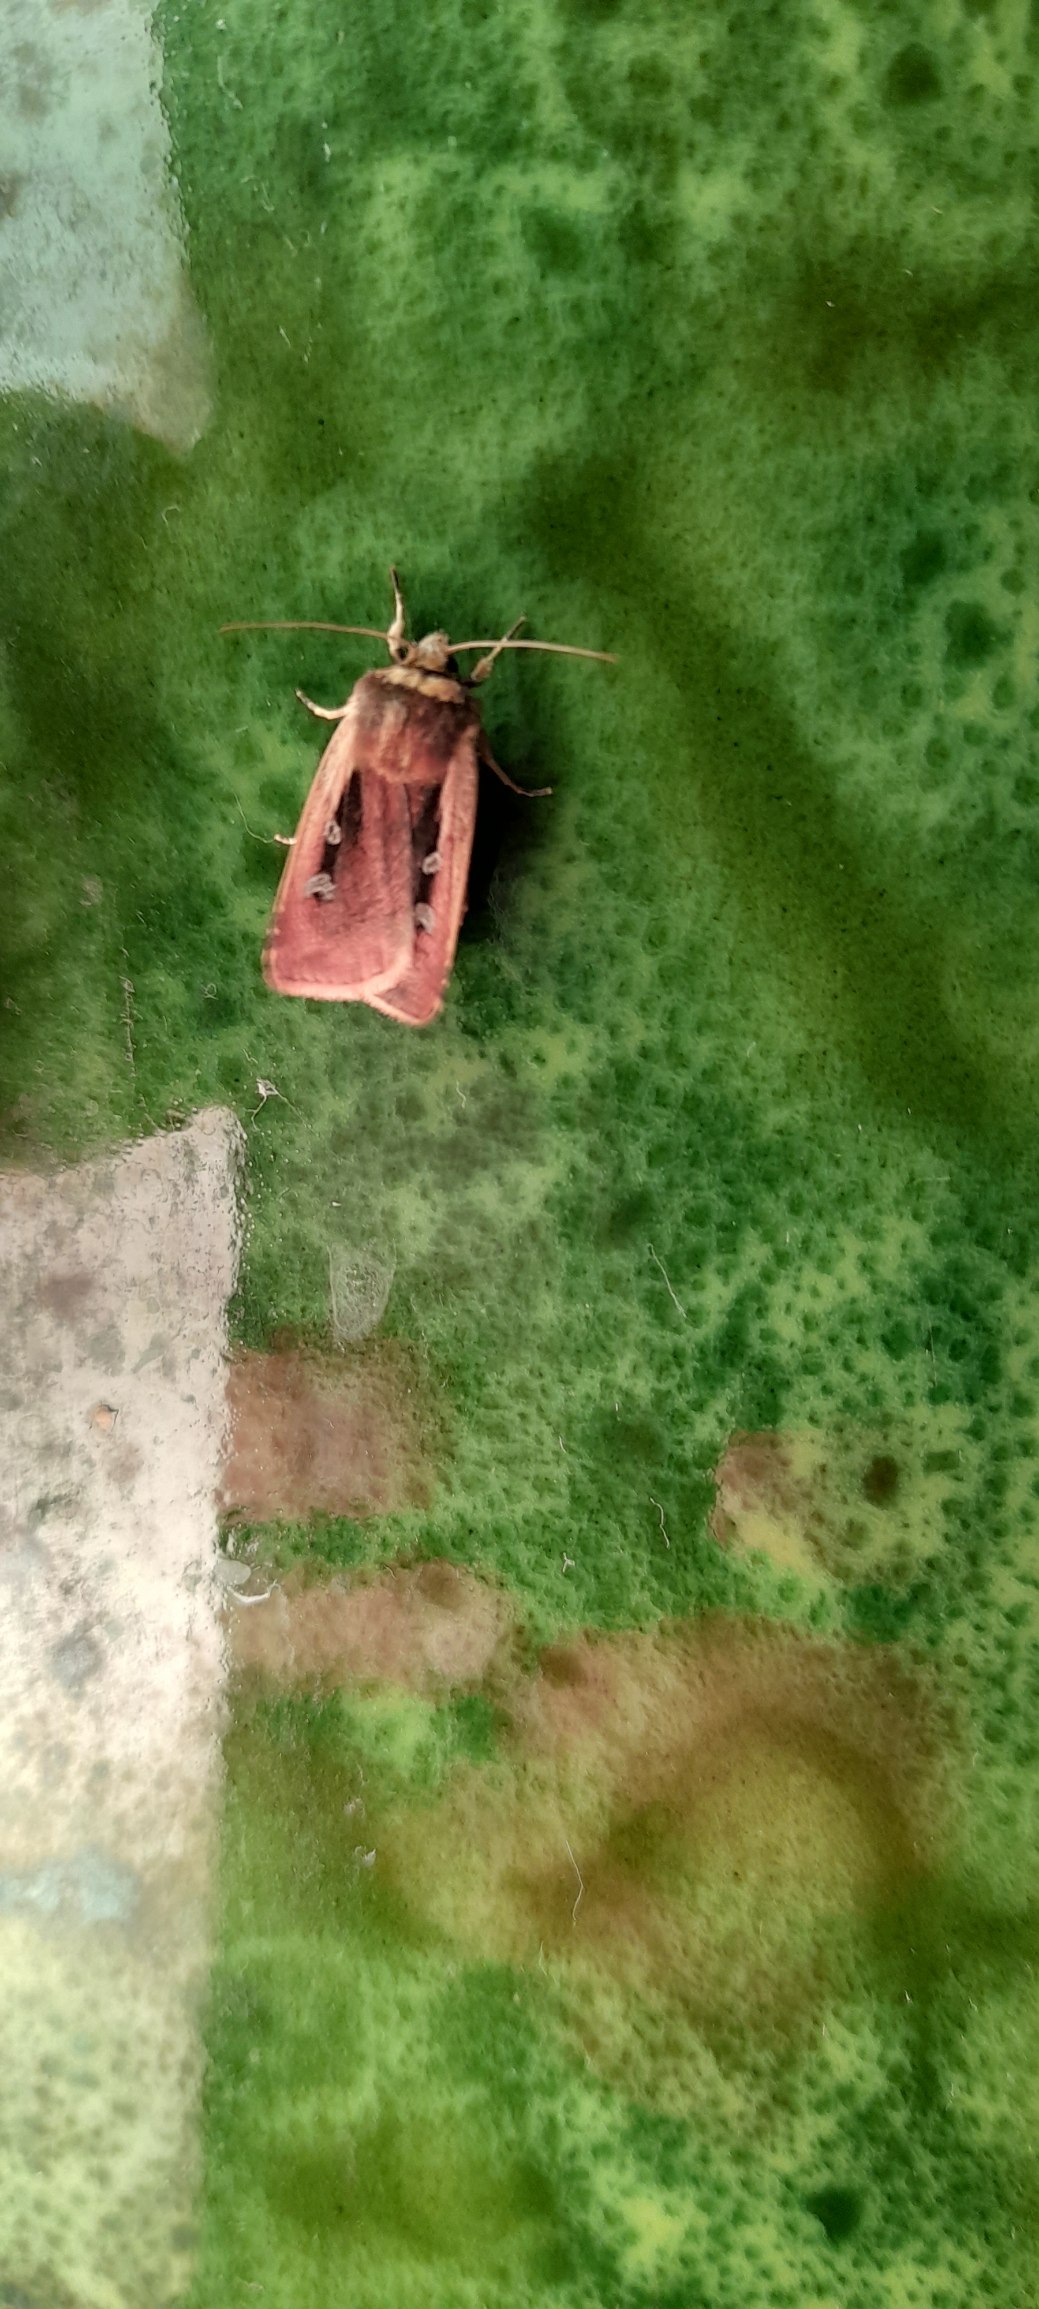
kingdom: Animalia
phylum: Arthropoda
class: Insecta
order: Lepidoptera
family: Noctuidae
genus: Ochropleura
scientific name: Ochropleura plecta
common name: Hvidrandet jordugle
